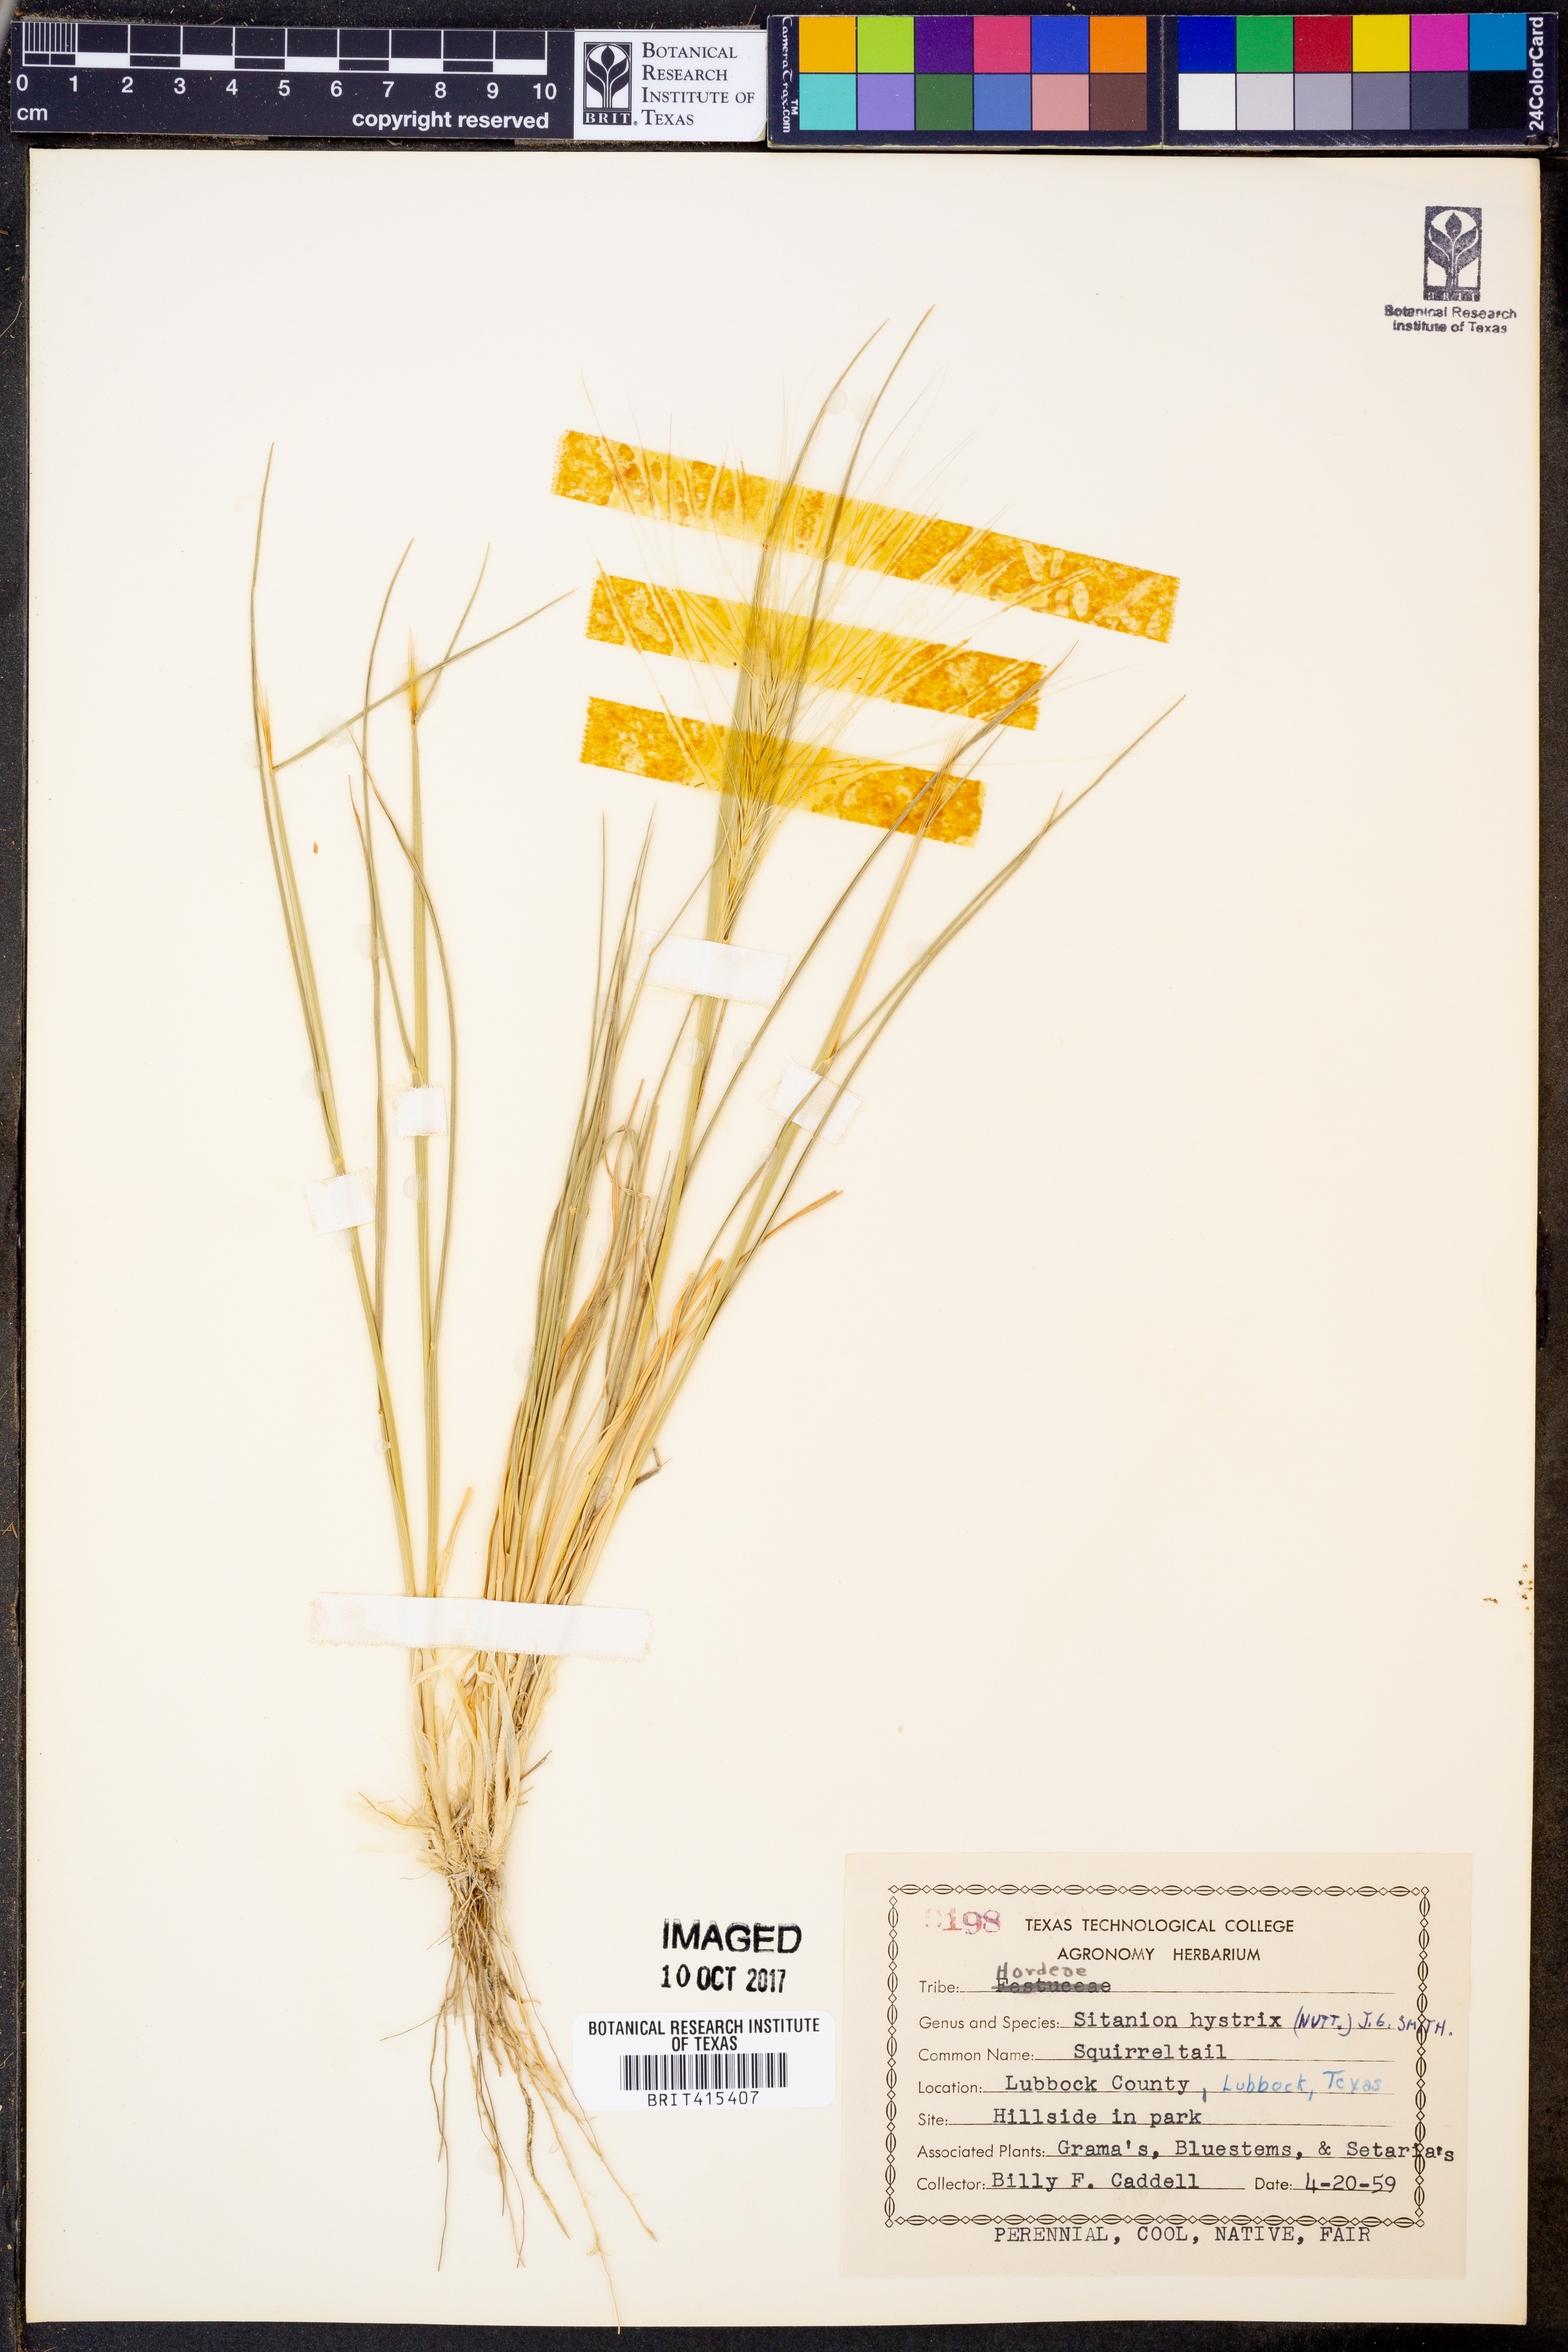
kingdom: Plantae
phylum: Tracheophyta
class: Liliopsida
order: Poales
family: Poaceae
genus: Elymus
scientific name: Elymus elymoides
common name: Bottlebrush squirreltail
